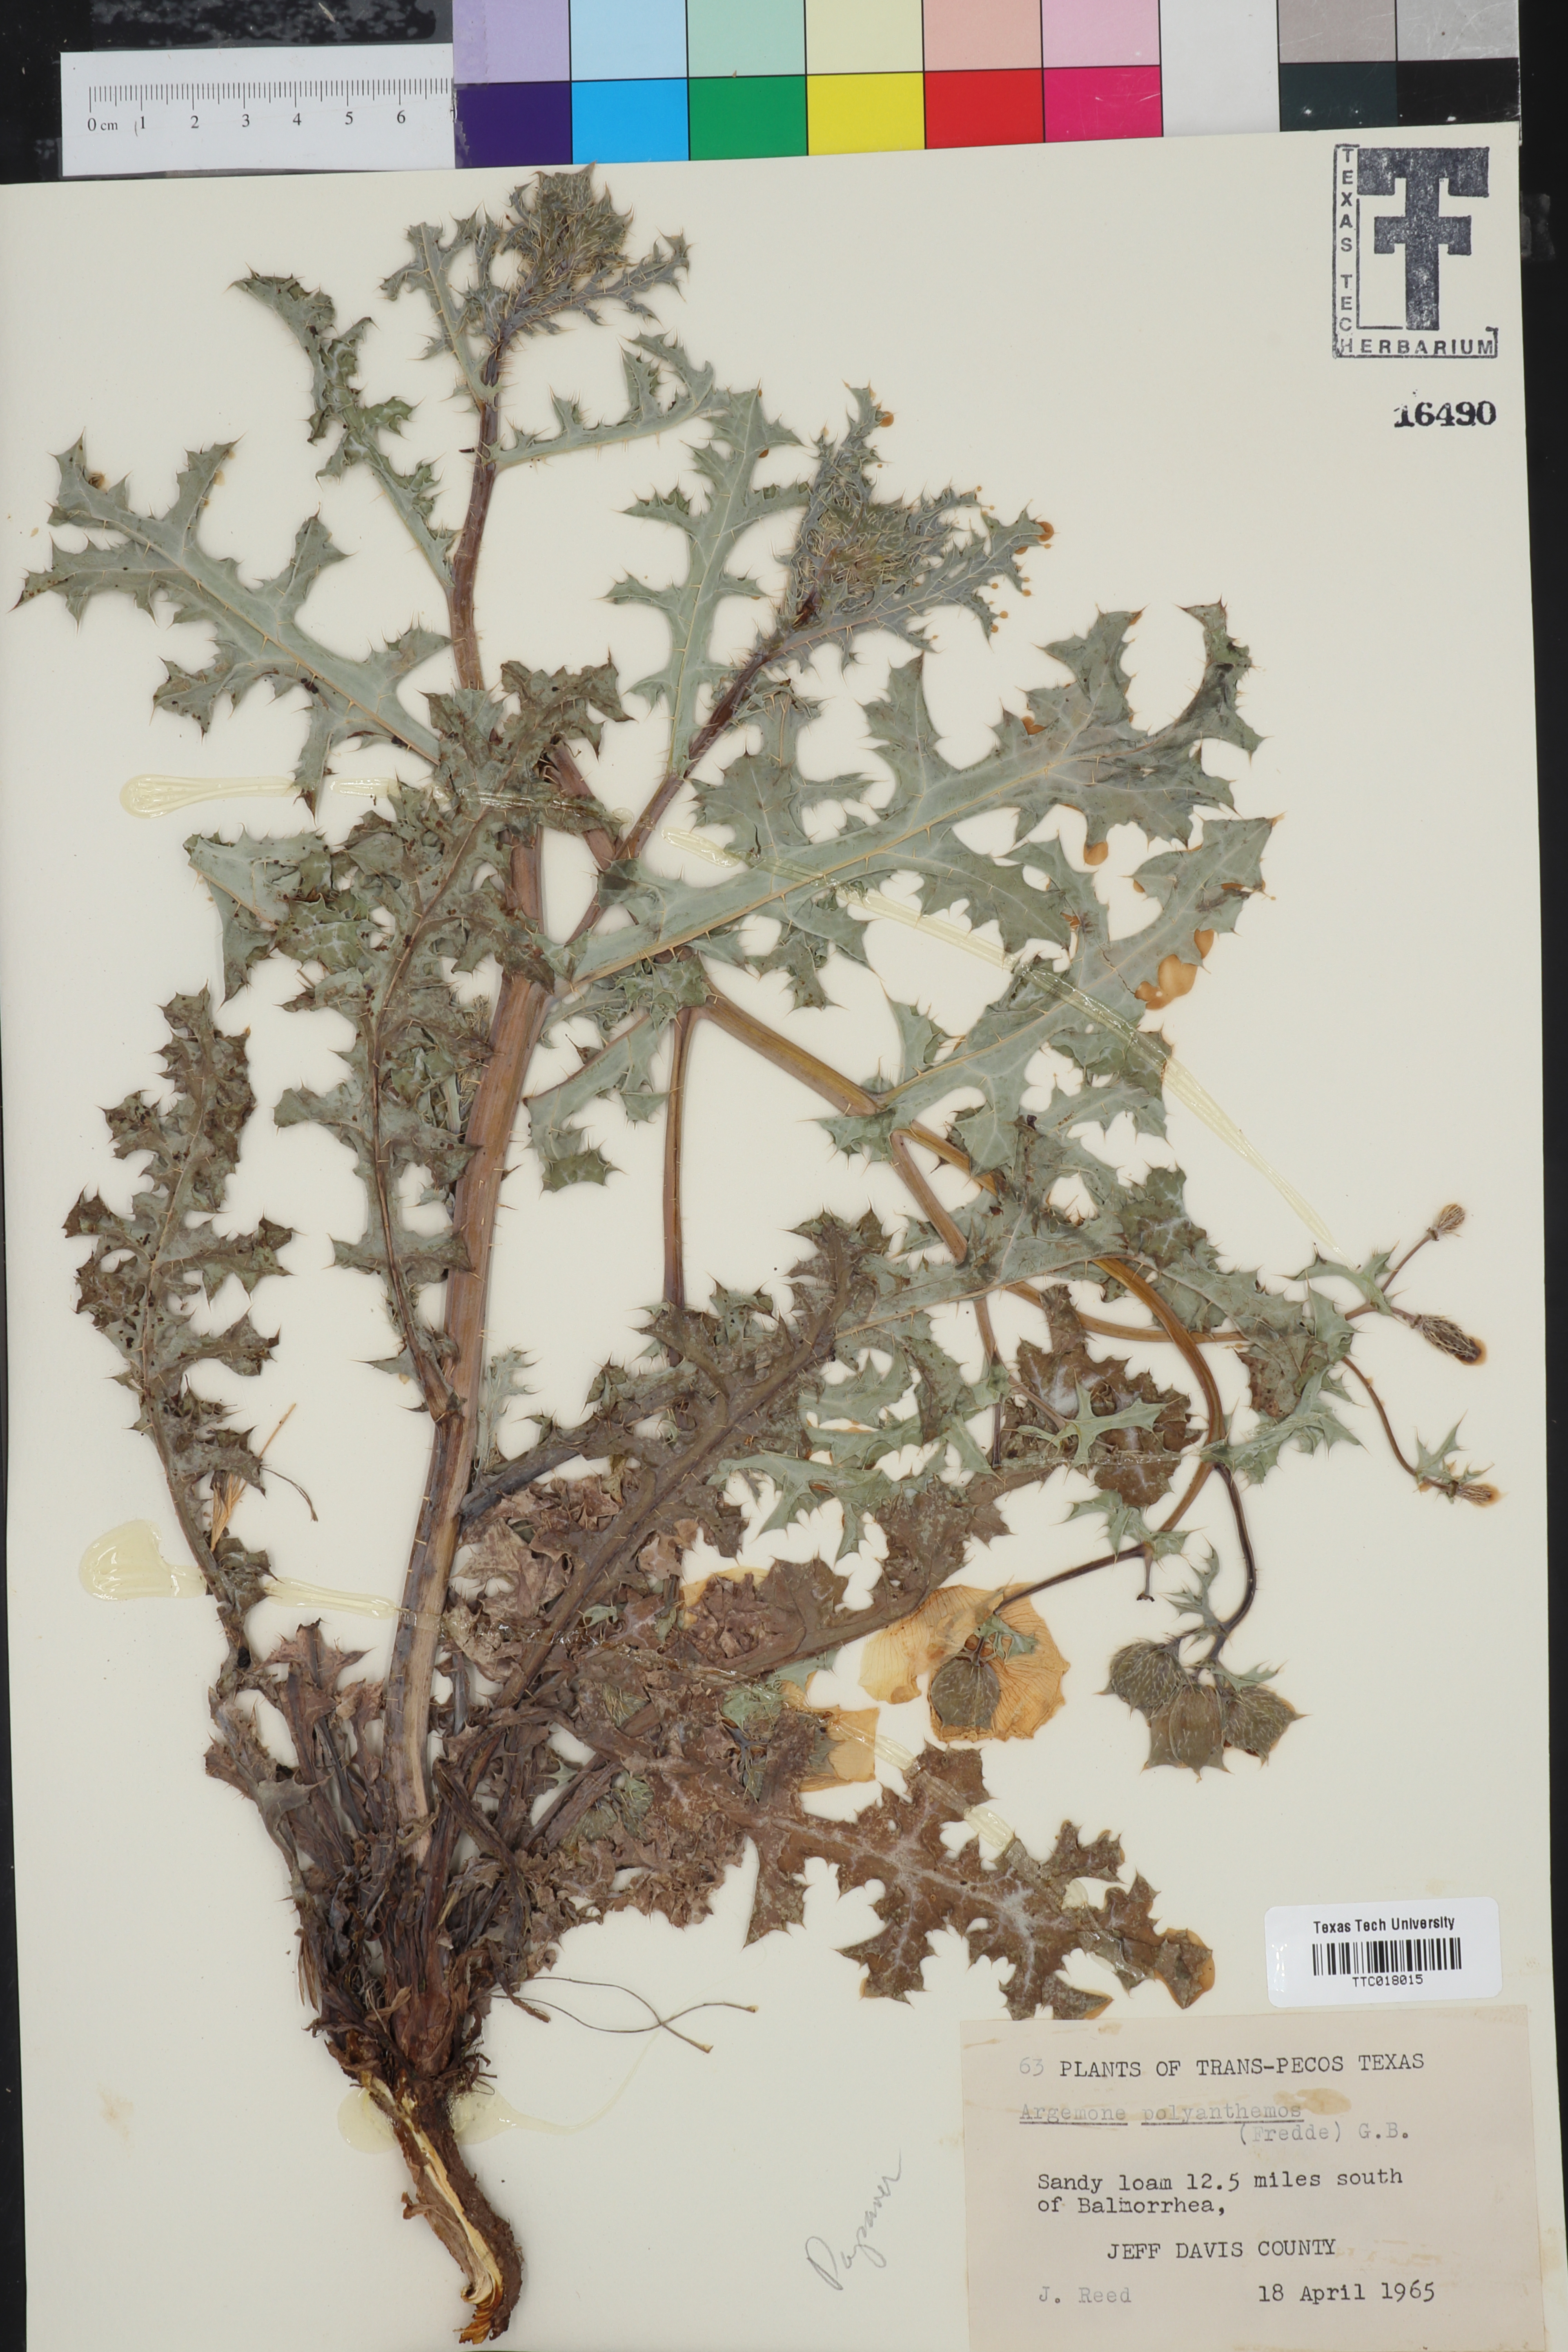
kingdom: Plantae
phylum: Tracheophyta
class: Magnoliopsida
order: Ranunculales
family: Papaveraceae
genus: Argemone
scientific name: Argemone polyanthemos
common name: Plains prickly-poppy
